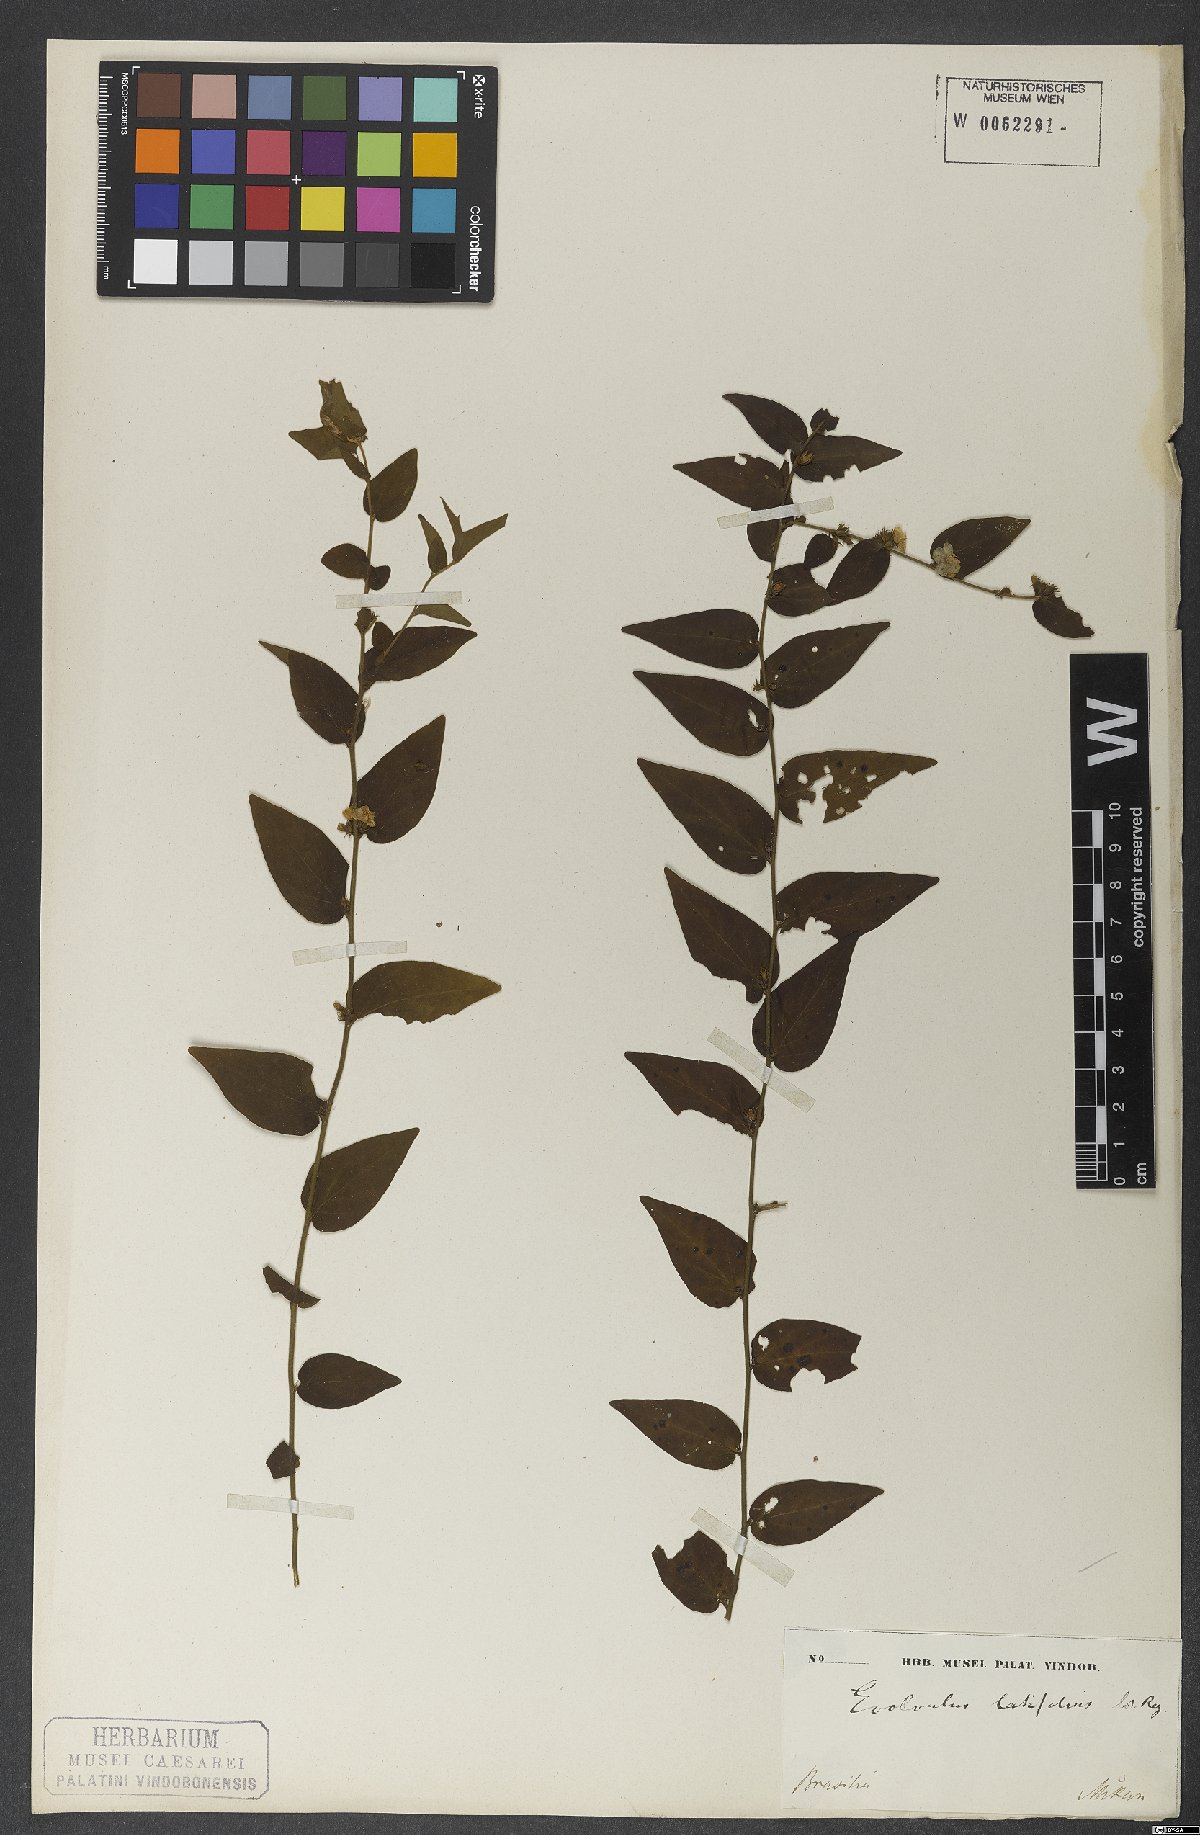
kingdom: Plantae
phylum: Tracheophyta
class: Magnoliopsida
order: Solanales
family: Convolvulaceae
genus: Evolvulus
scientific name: Evolvulus latifolius
